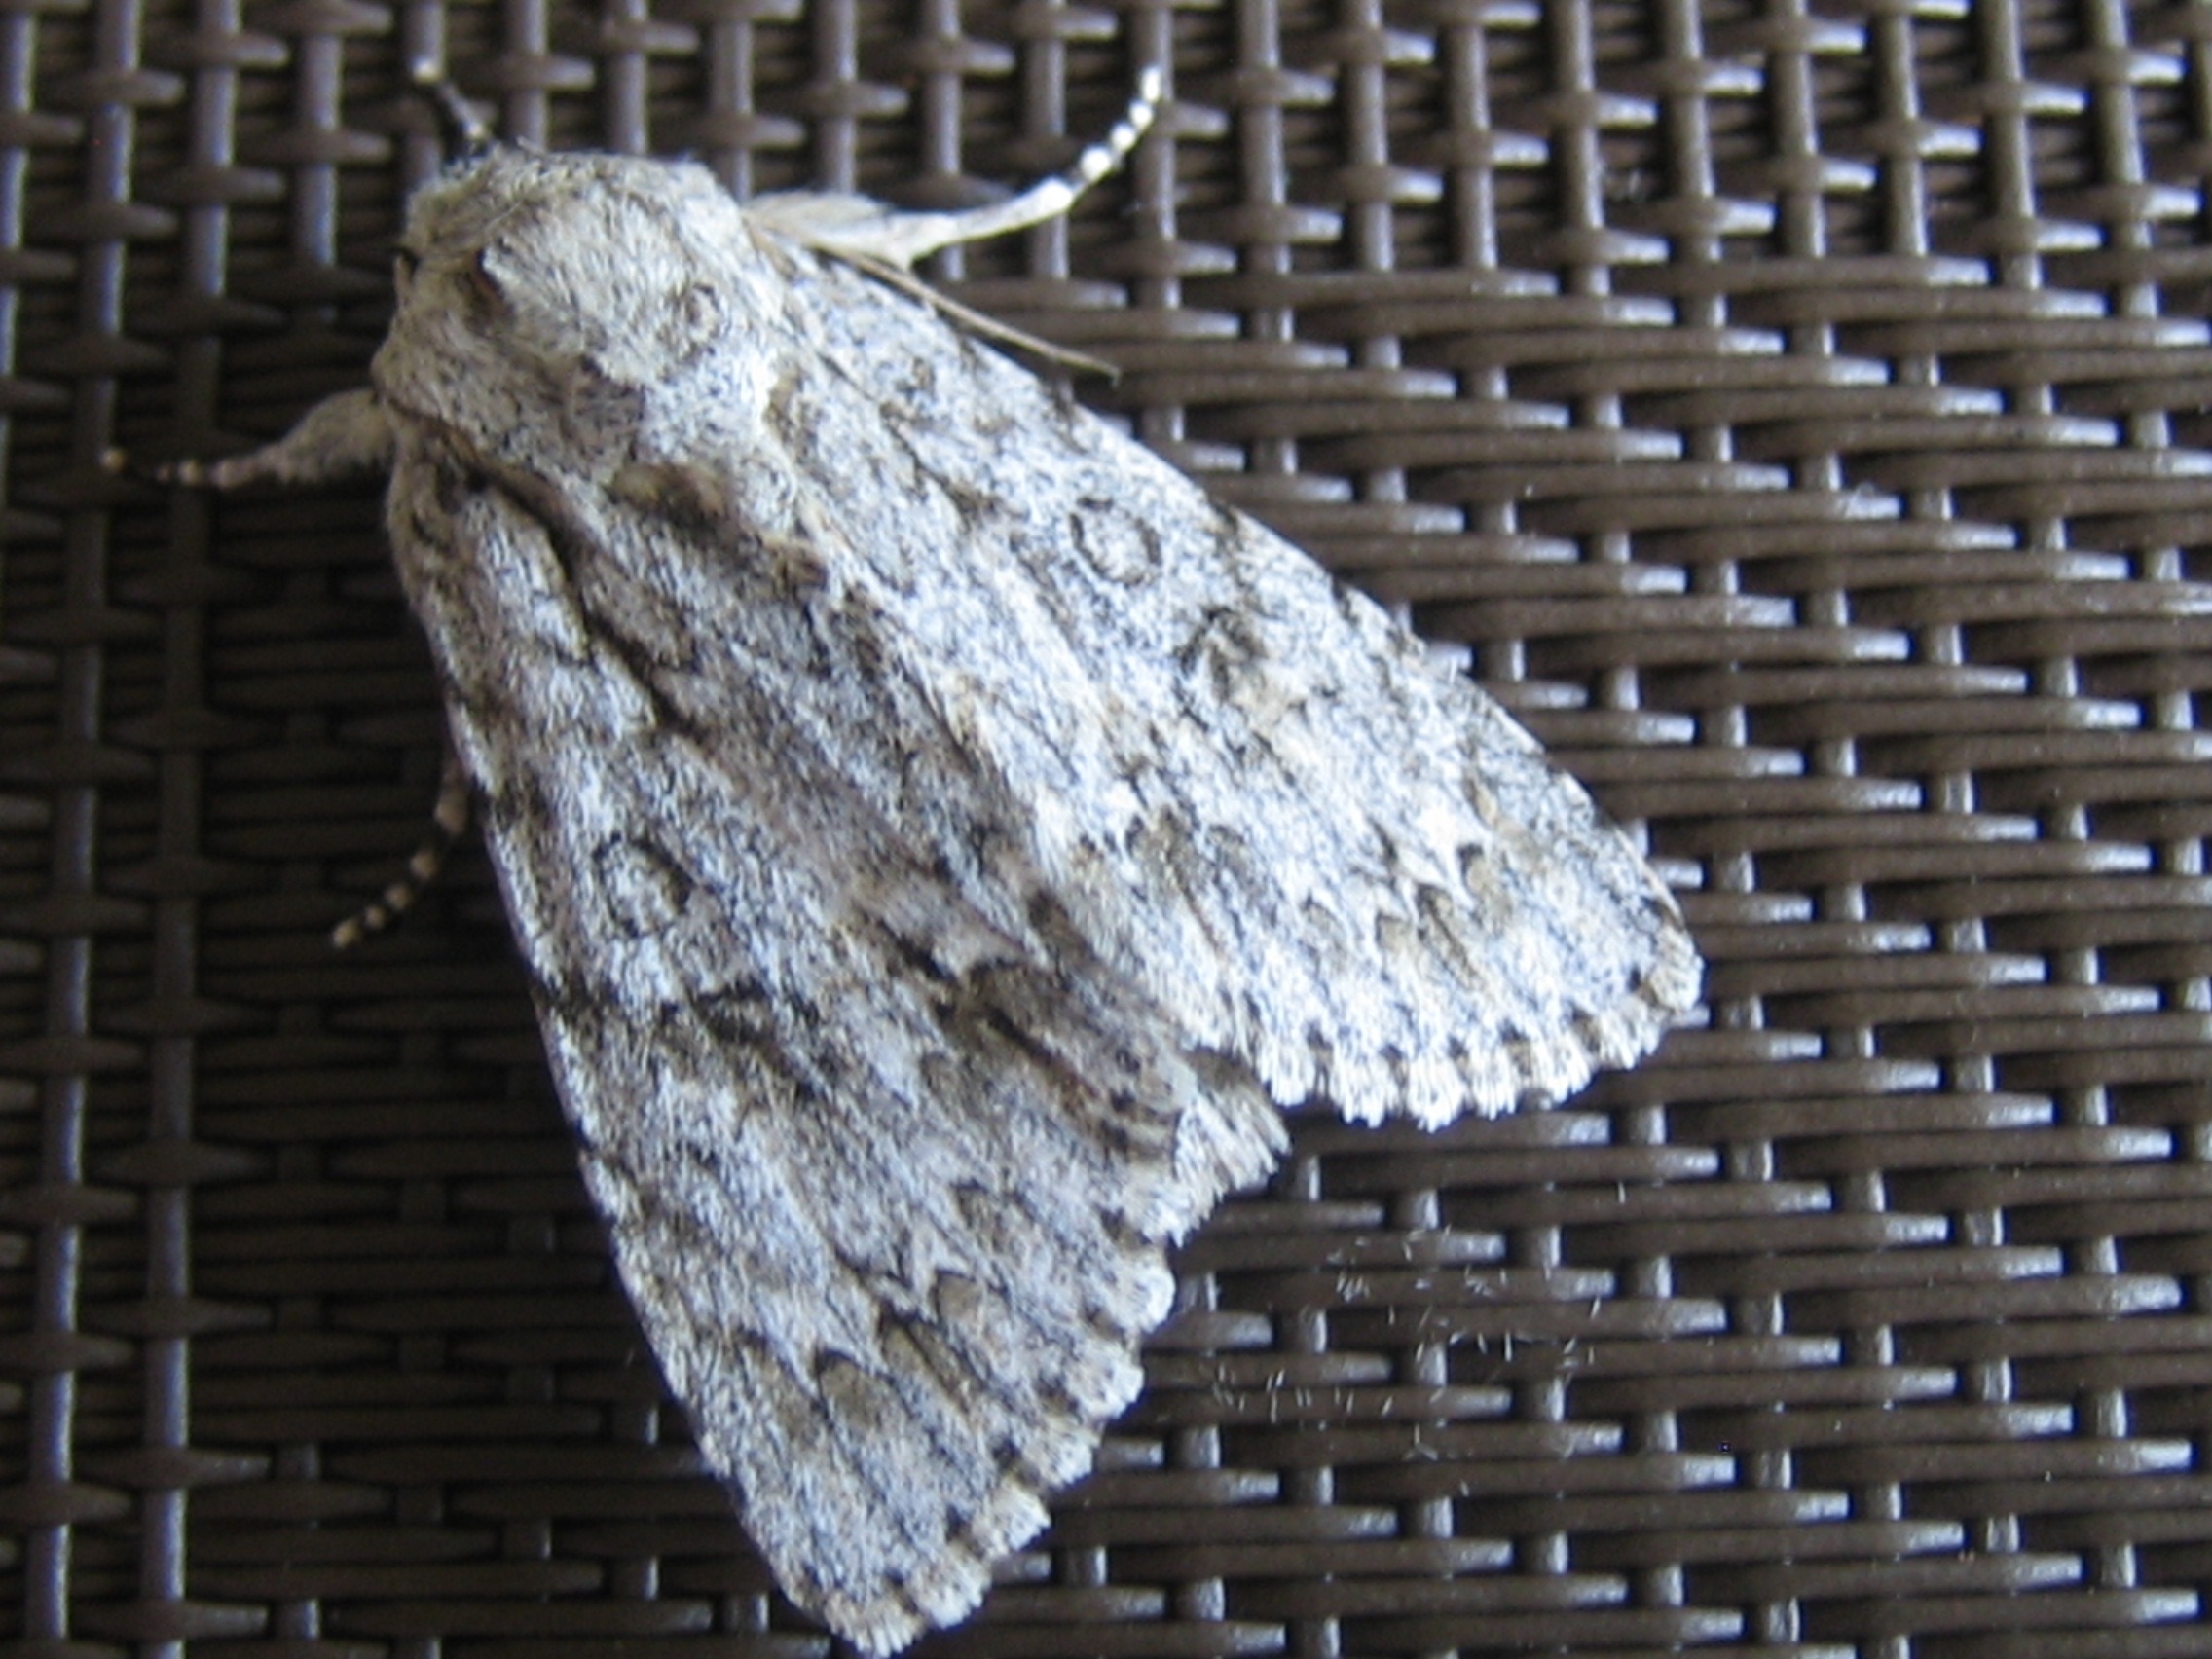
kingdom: Animalia
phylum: Arthropoda
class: Insecta
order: Lepidoptera
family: Noctuidae
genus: Acronicta
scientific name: Acronicta aceris
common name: Ahornugle
